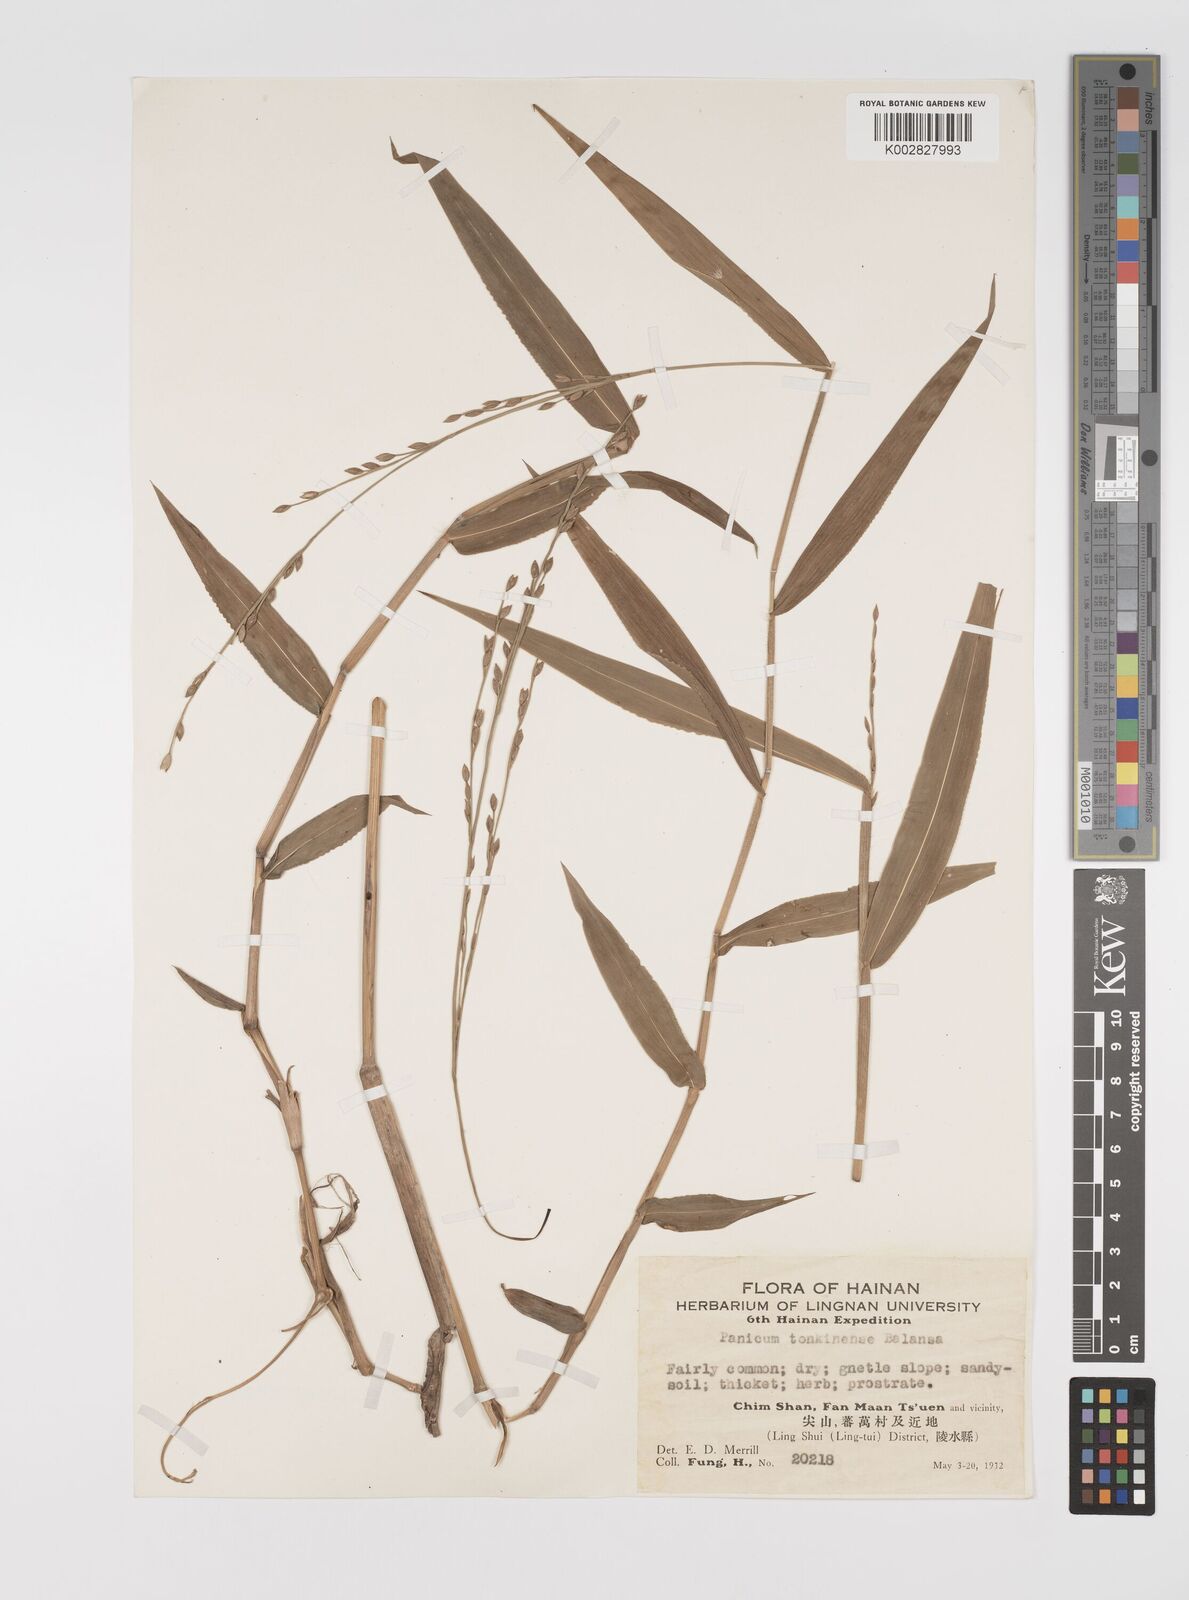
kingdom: Plantae
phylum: Tracheophyta
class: Liliopsida
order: Poales
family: Poaceae
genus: Acroceras
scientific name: Acroceras tonkinense
